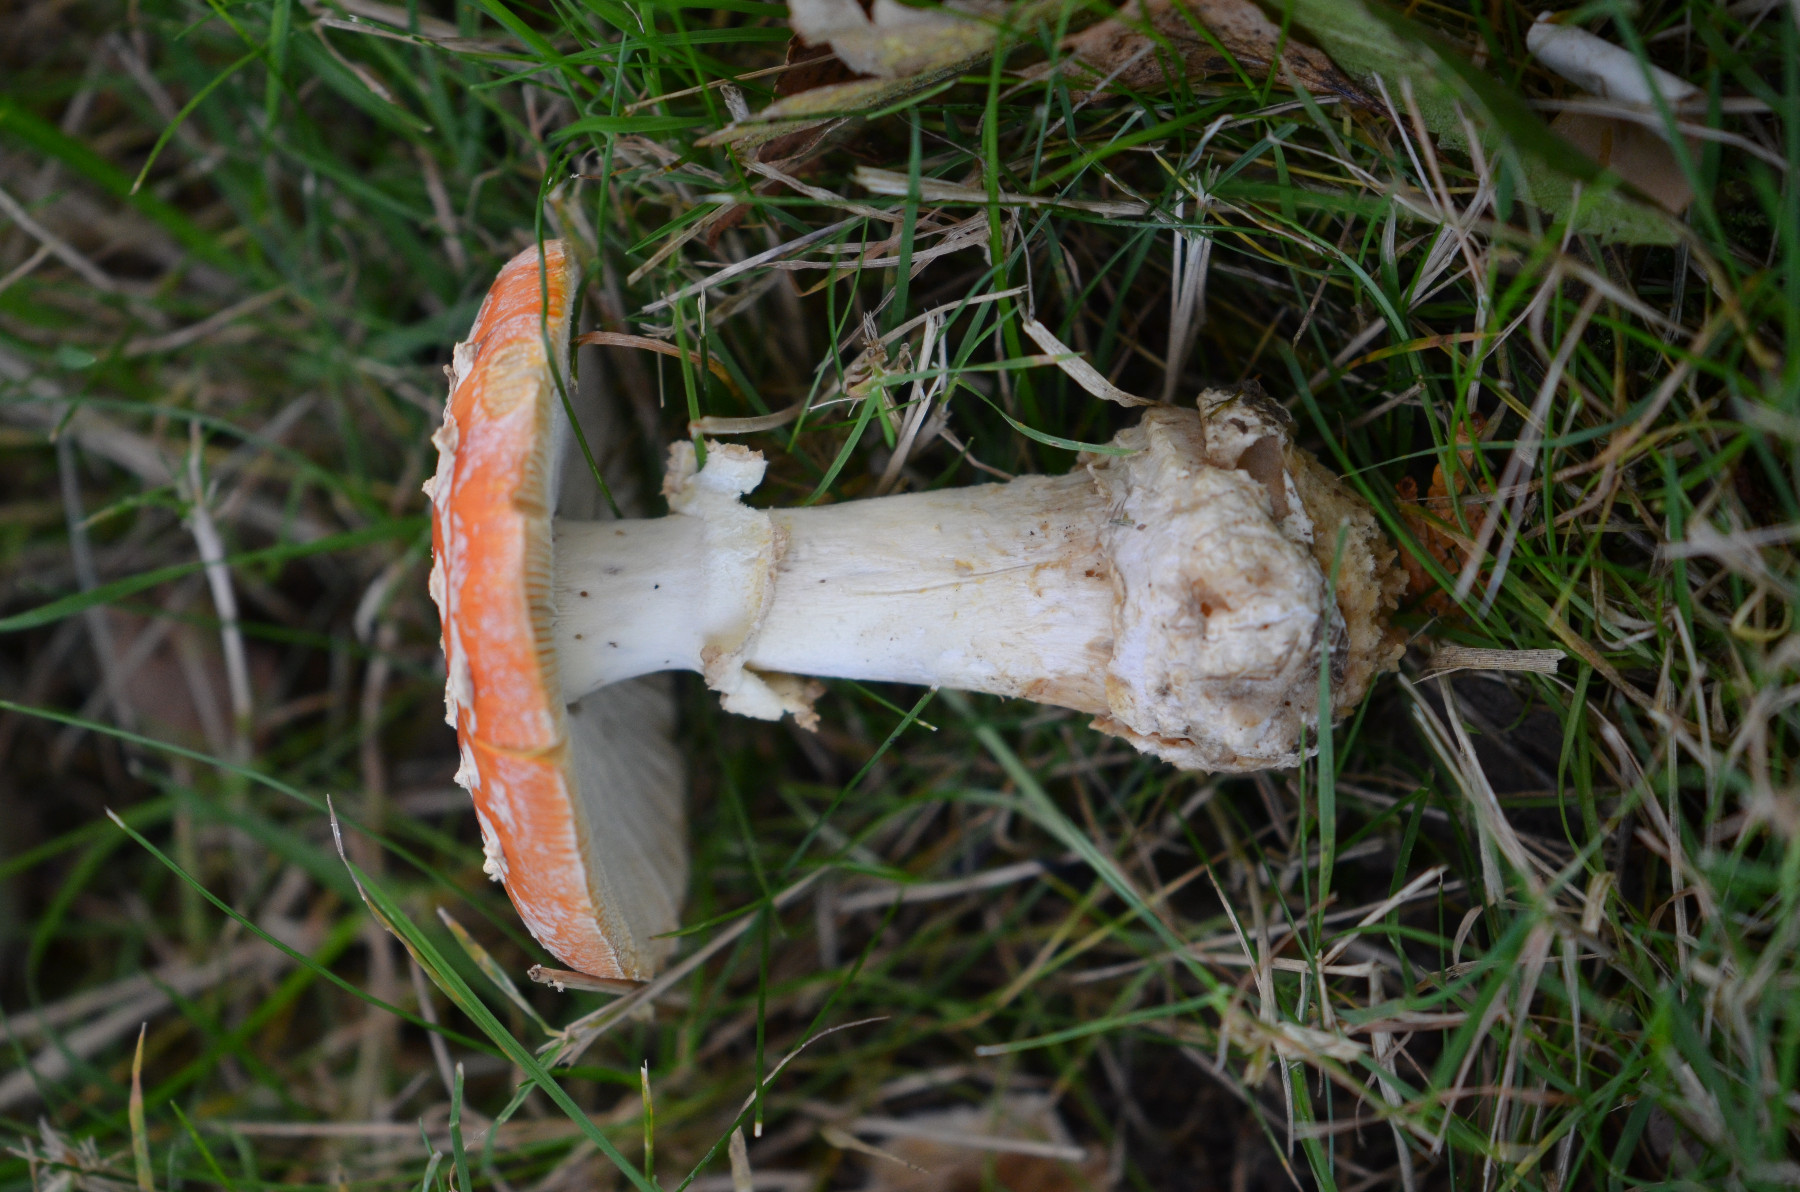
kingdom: Fungi
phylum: Basidiomycota
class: Agaricomycetes
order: Agaricales
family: Amanitaceae
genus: Amanita
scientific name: Amanita muscaria
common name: rød fluesvamp
